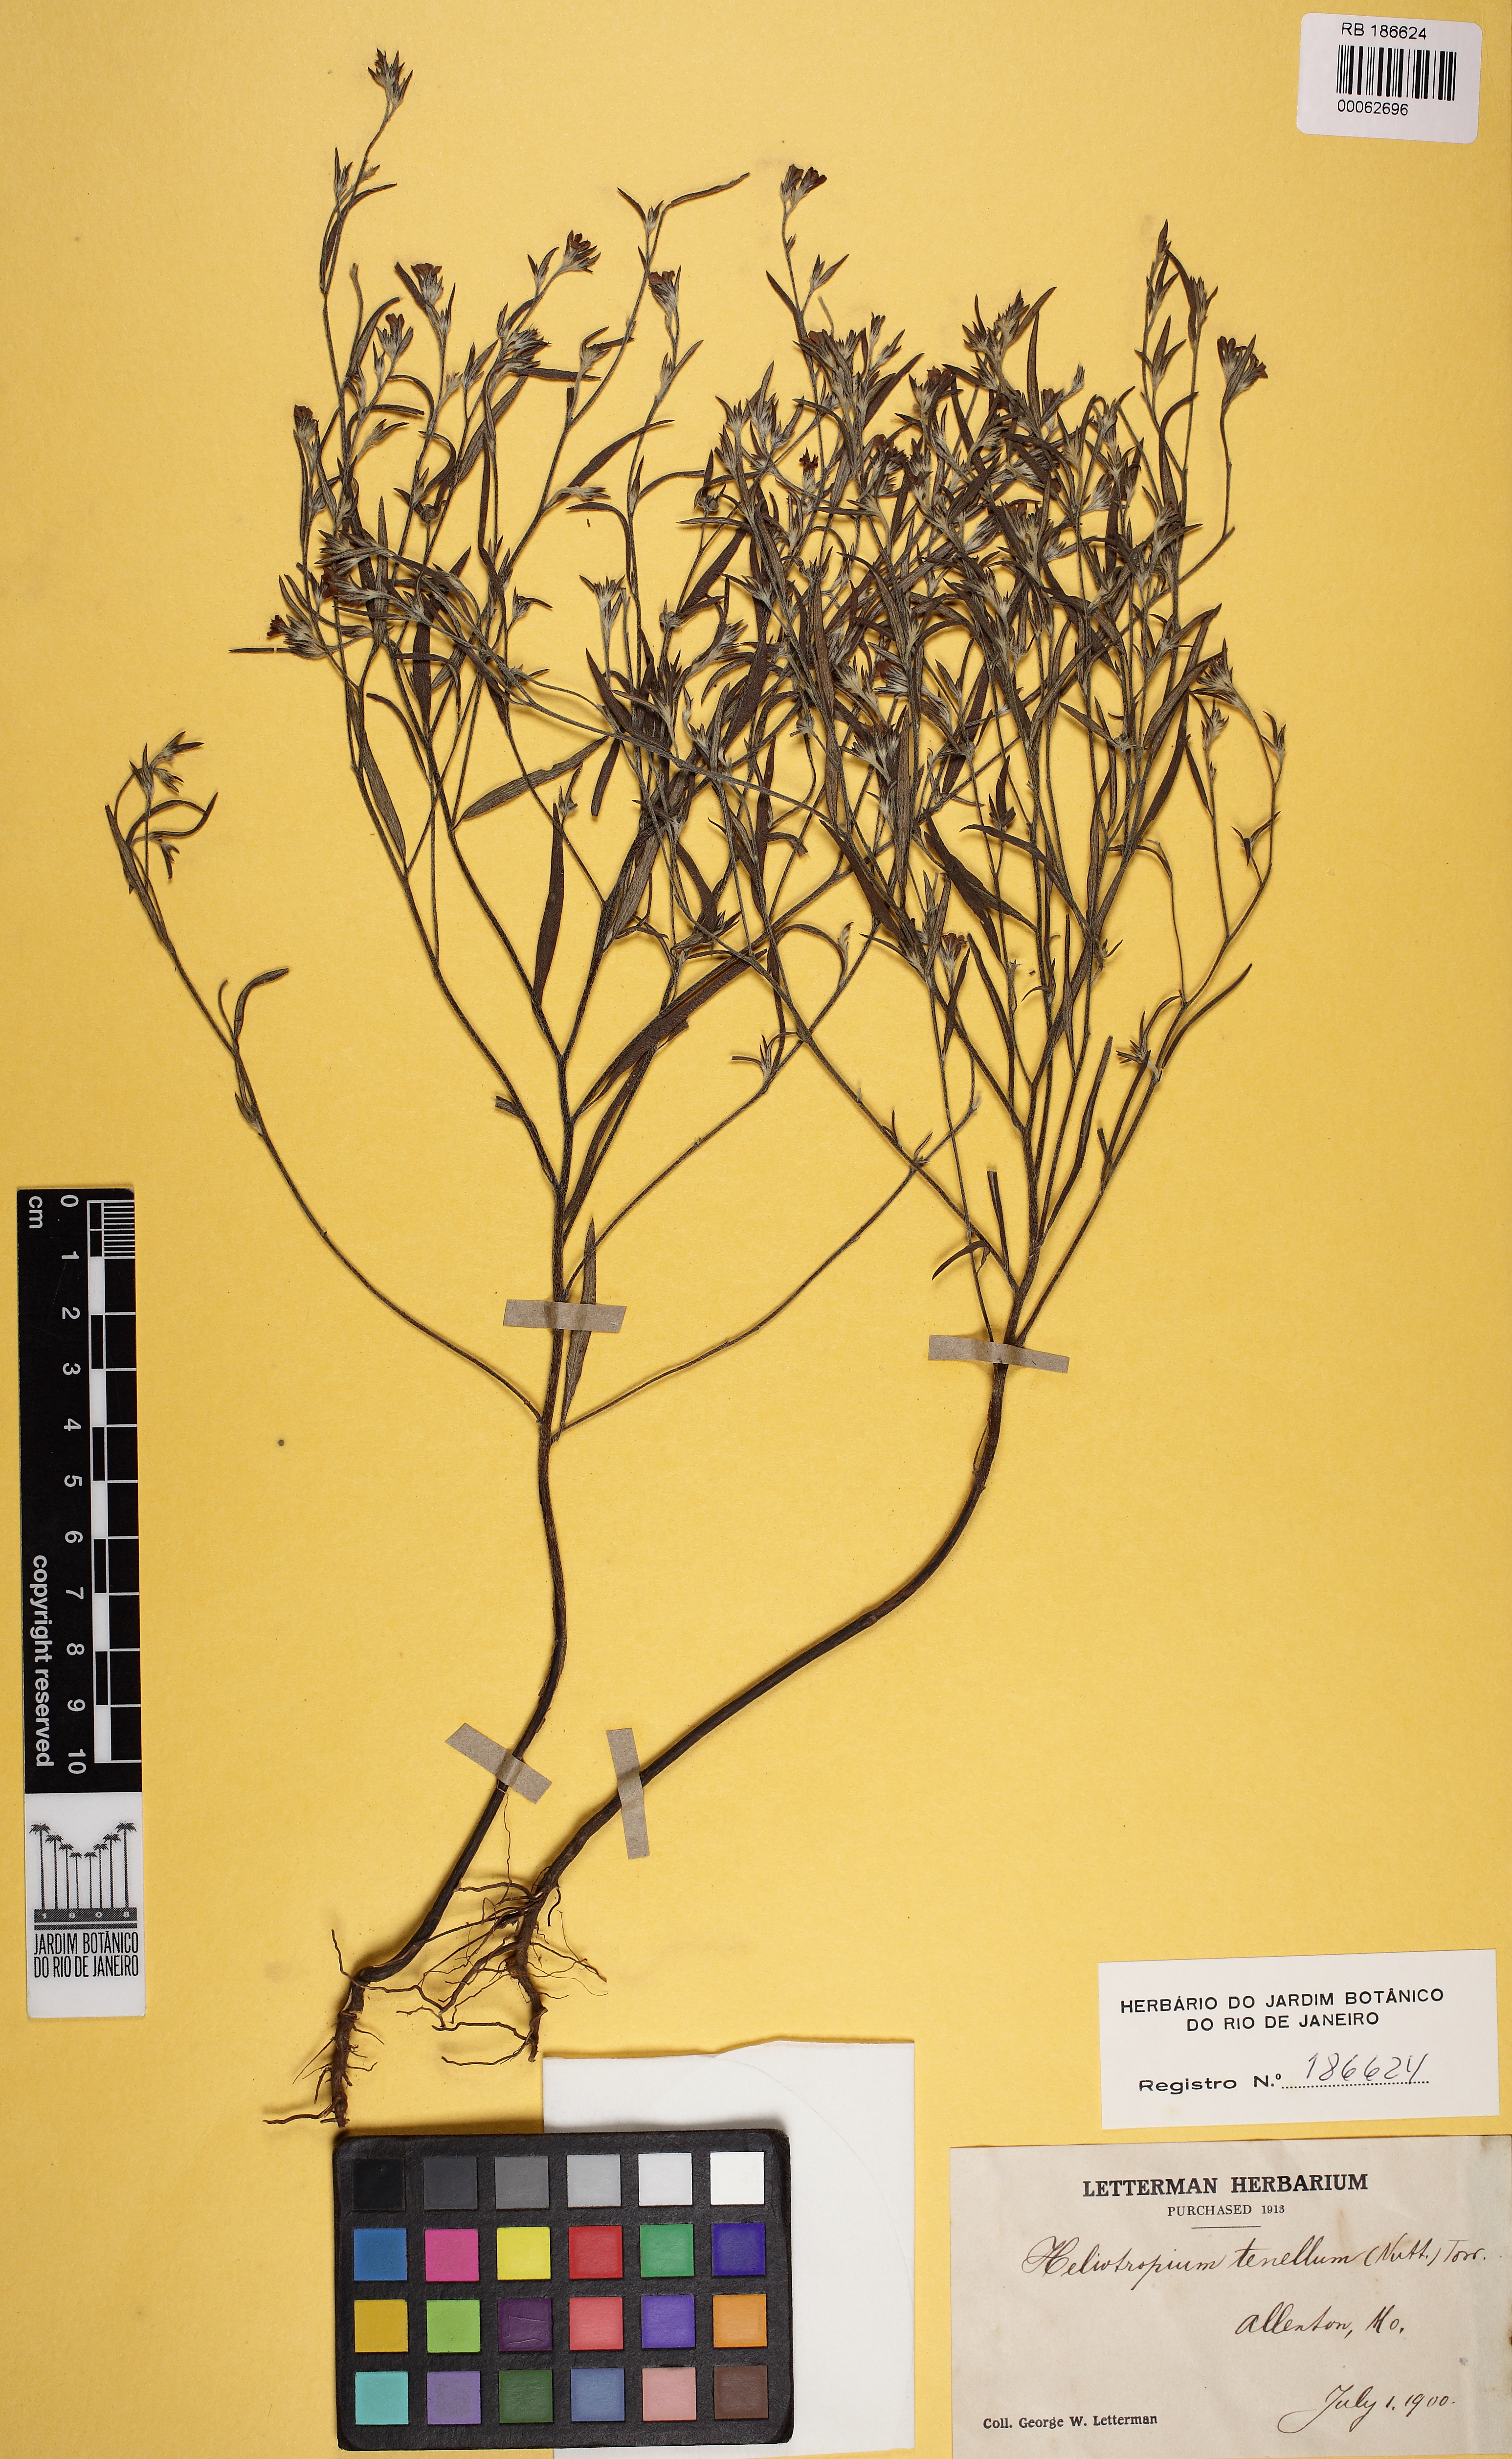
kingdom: Plantae
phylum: Tracheophyta
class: Magnoliopsida
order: Boraginales
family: Heliotropiaceae
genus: Euploca
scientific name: Euploca tenella
